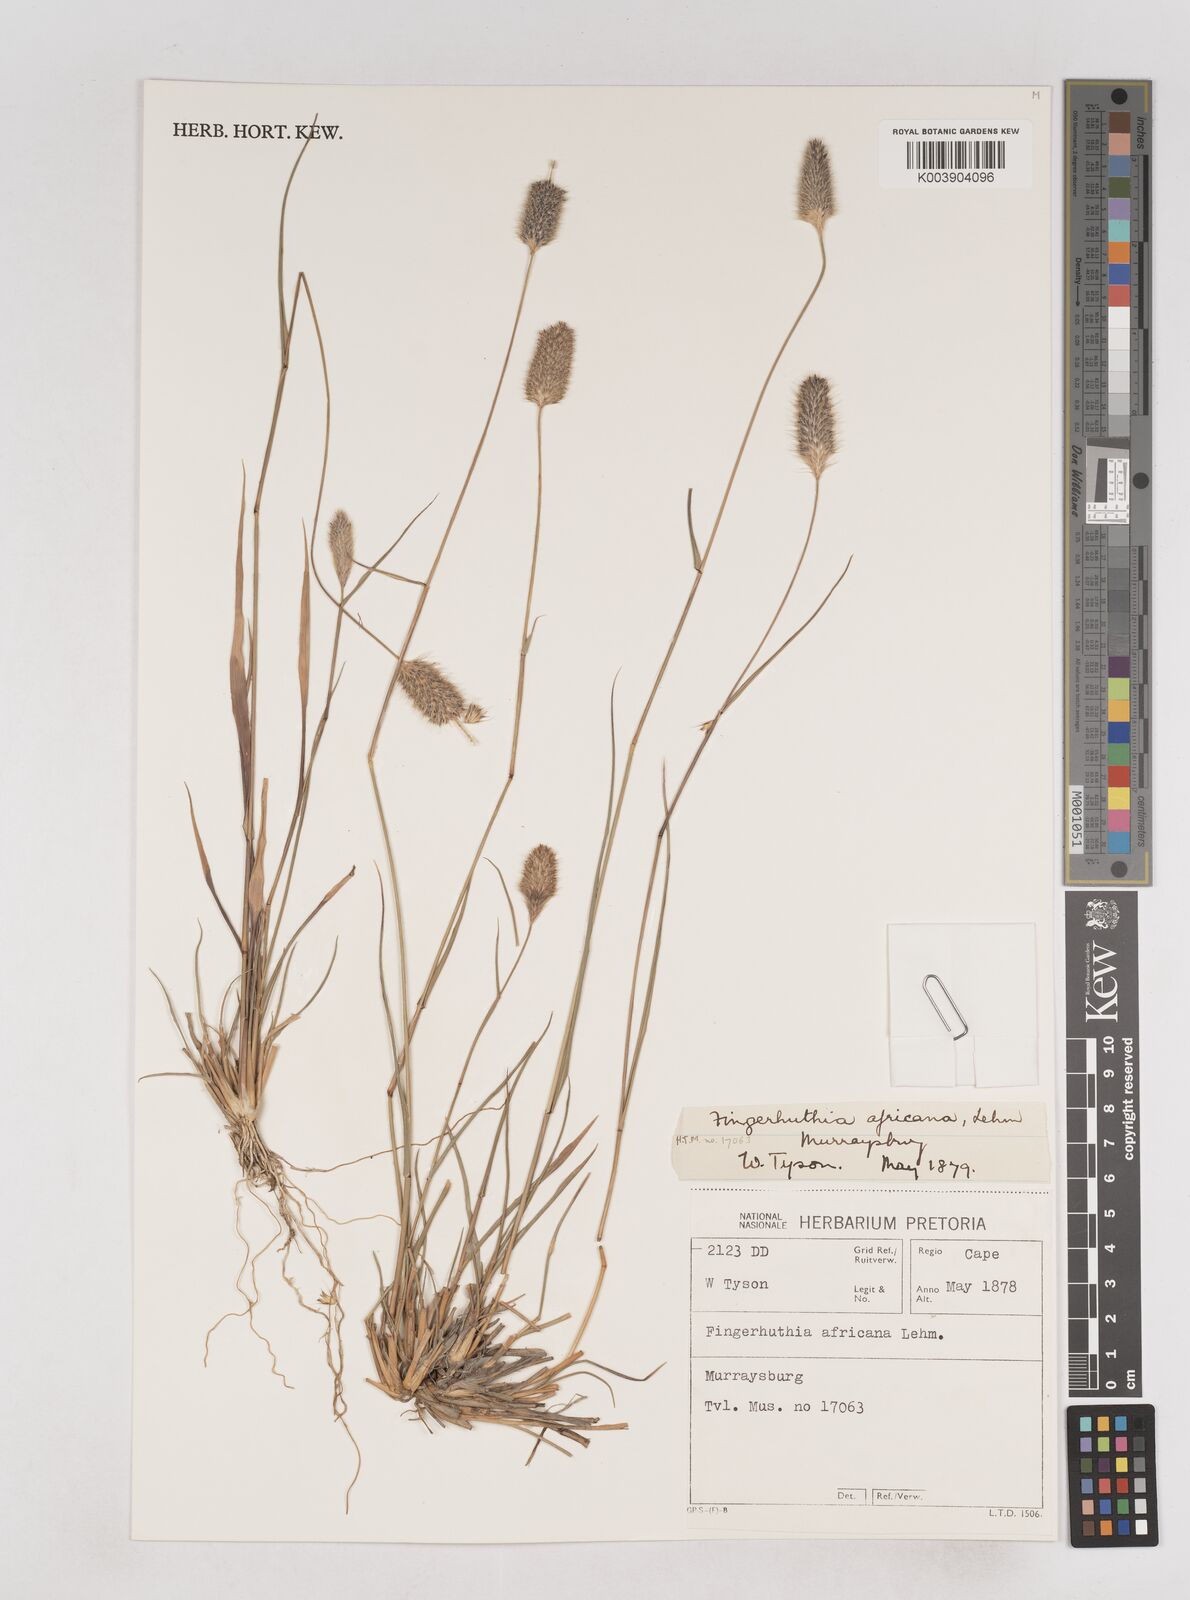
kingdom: Plantae
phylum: Tracheophyta
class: Liliopsida
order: Poales
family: Poaceae
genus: Fingerhuthia
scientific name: Fingerhuthia africana
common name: Zulu fescue
